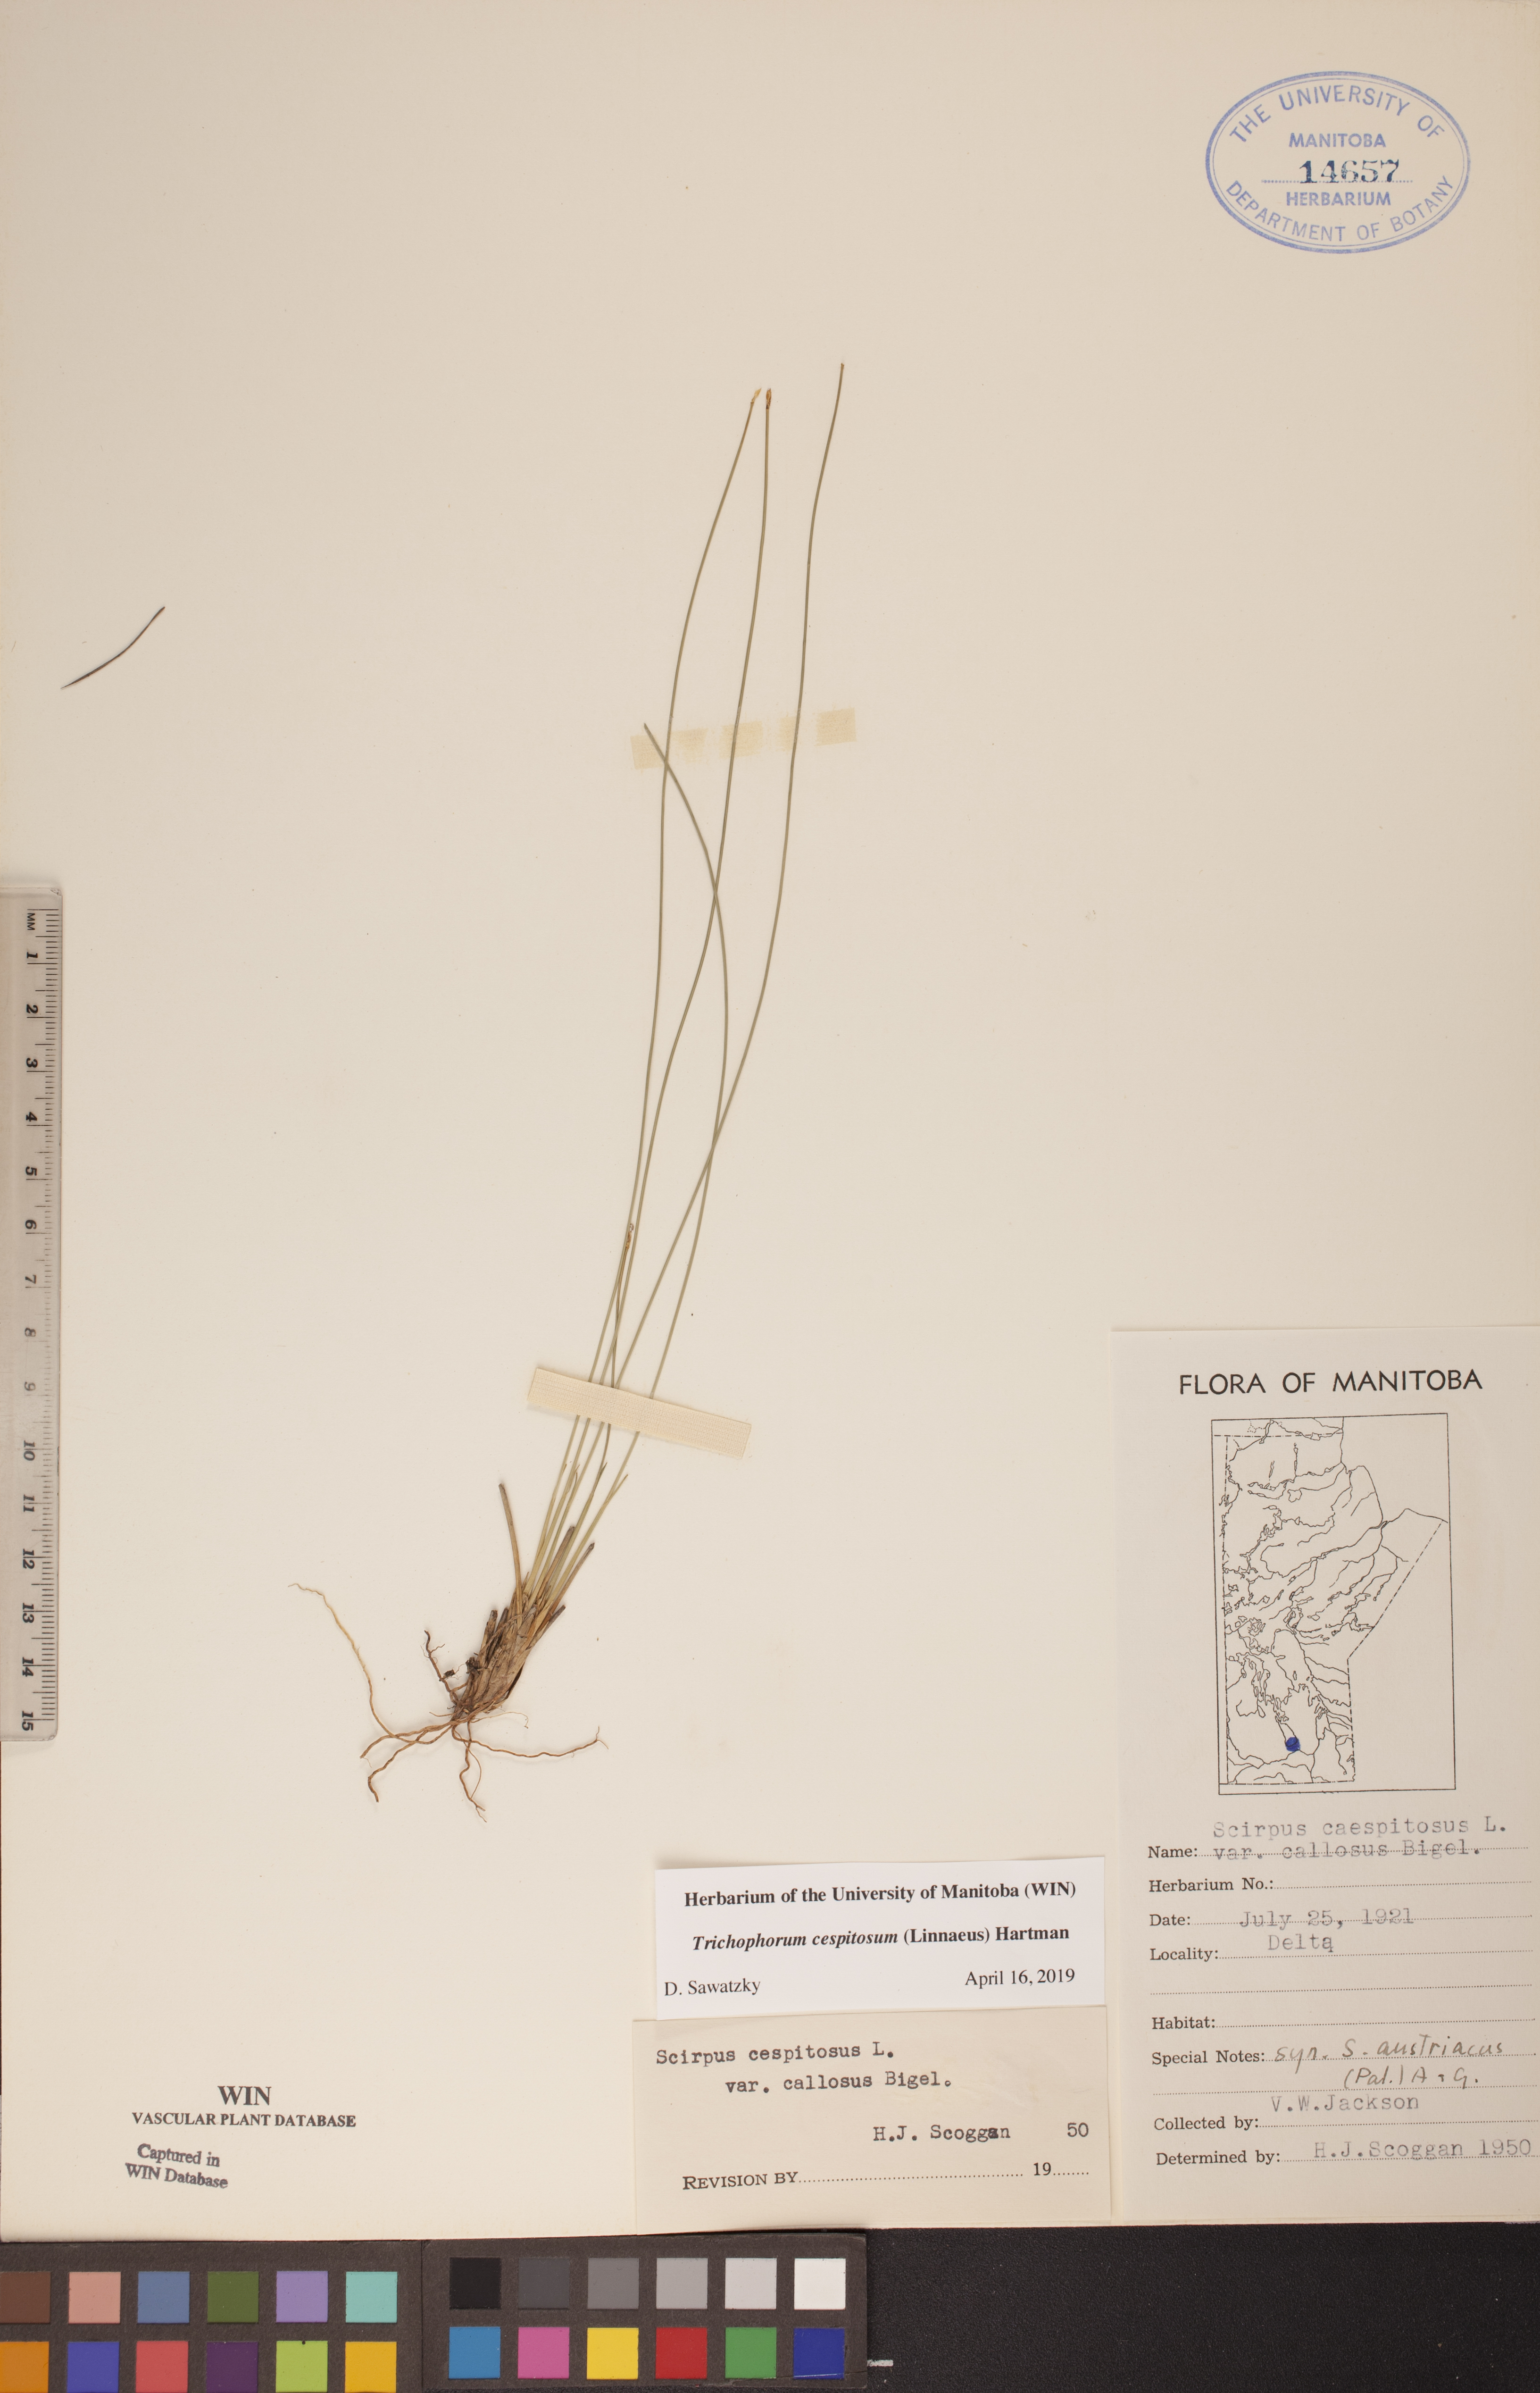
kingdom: Plantae
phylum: Tracheophyta
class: Liliopsida
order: Poales
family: Cyperaceae
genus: Trichophorum
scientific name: Trichophorum cespitosum
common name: Cespitose bulrush
